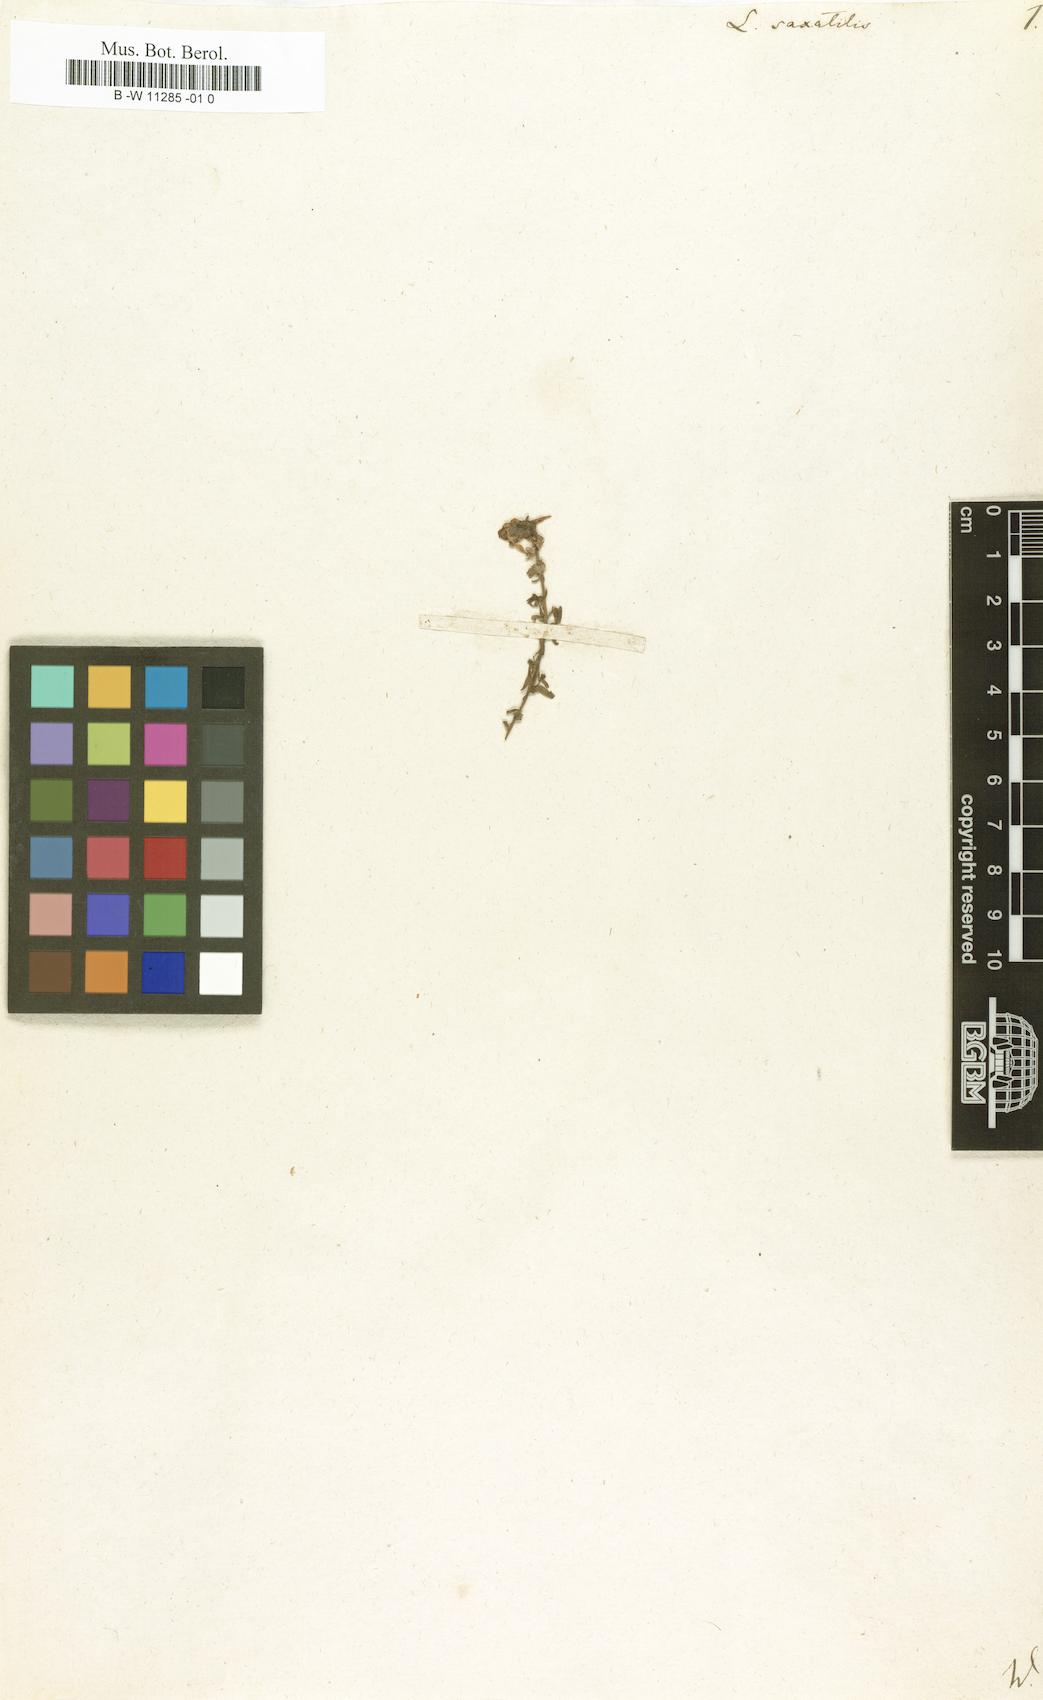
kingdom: Plantae
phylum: Tracheophyta
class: Magnoliopsida
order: Lamiales
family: Plantaginaceae
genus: Linaria
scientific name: Linaria saxatilis
